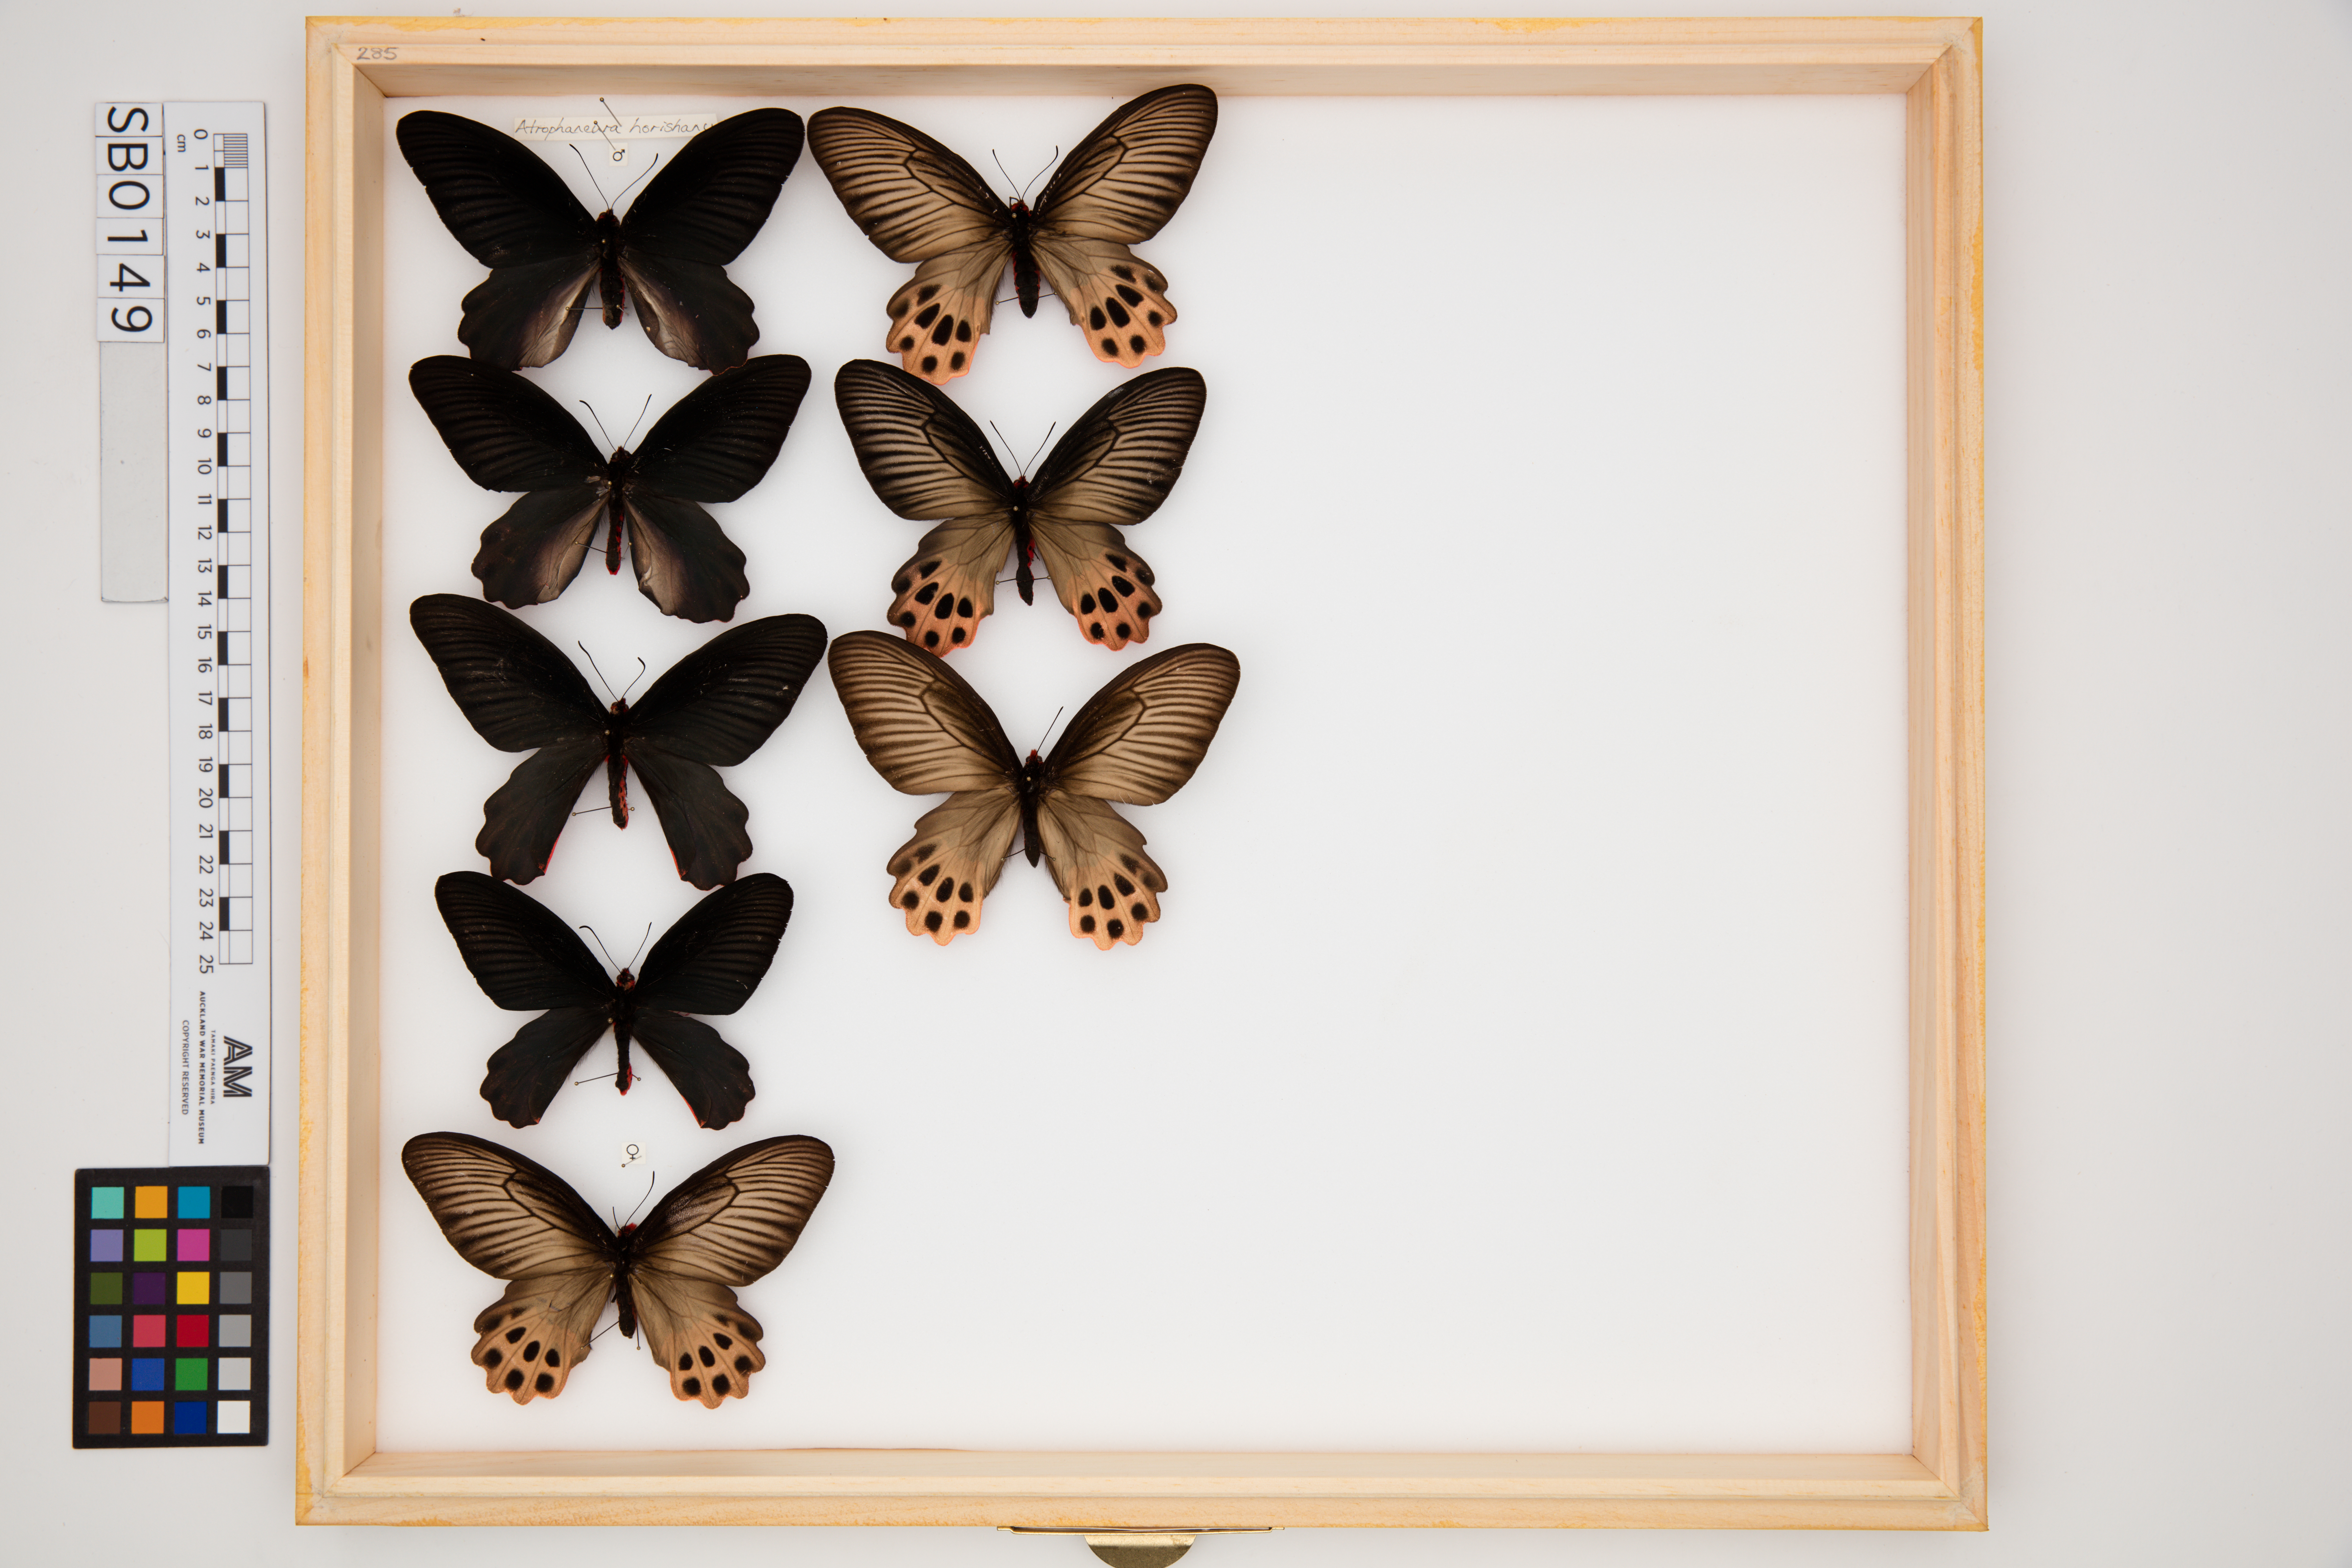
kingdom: Animalia
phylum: Arthropoda
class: Insecta
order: Lepidoptera
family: Papilionidae
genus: Atrophaneura
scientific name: Atrophaneura horishanus
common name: Aurora swallowtail
